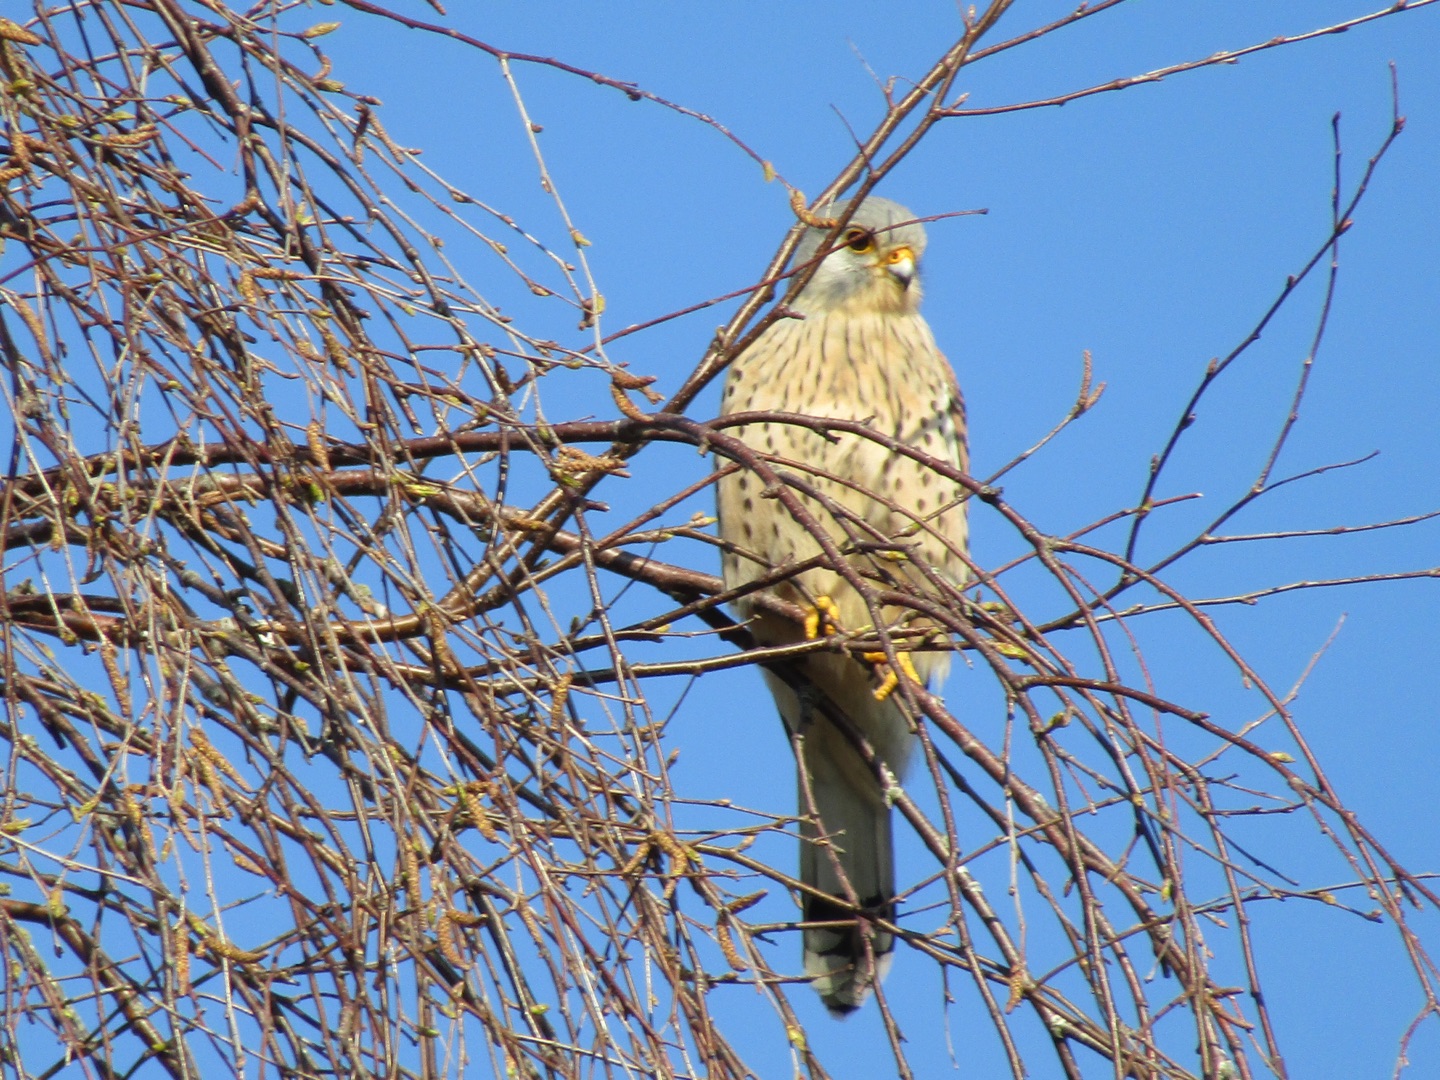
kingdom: Animalia
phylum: Chordata
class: Aves
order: Falconiformes
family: Falconidae
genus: Falco
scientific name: Falco tinnunculus
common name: Tårnfalk
